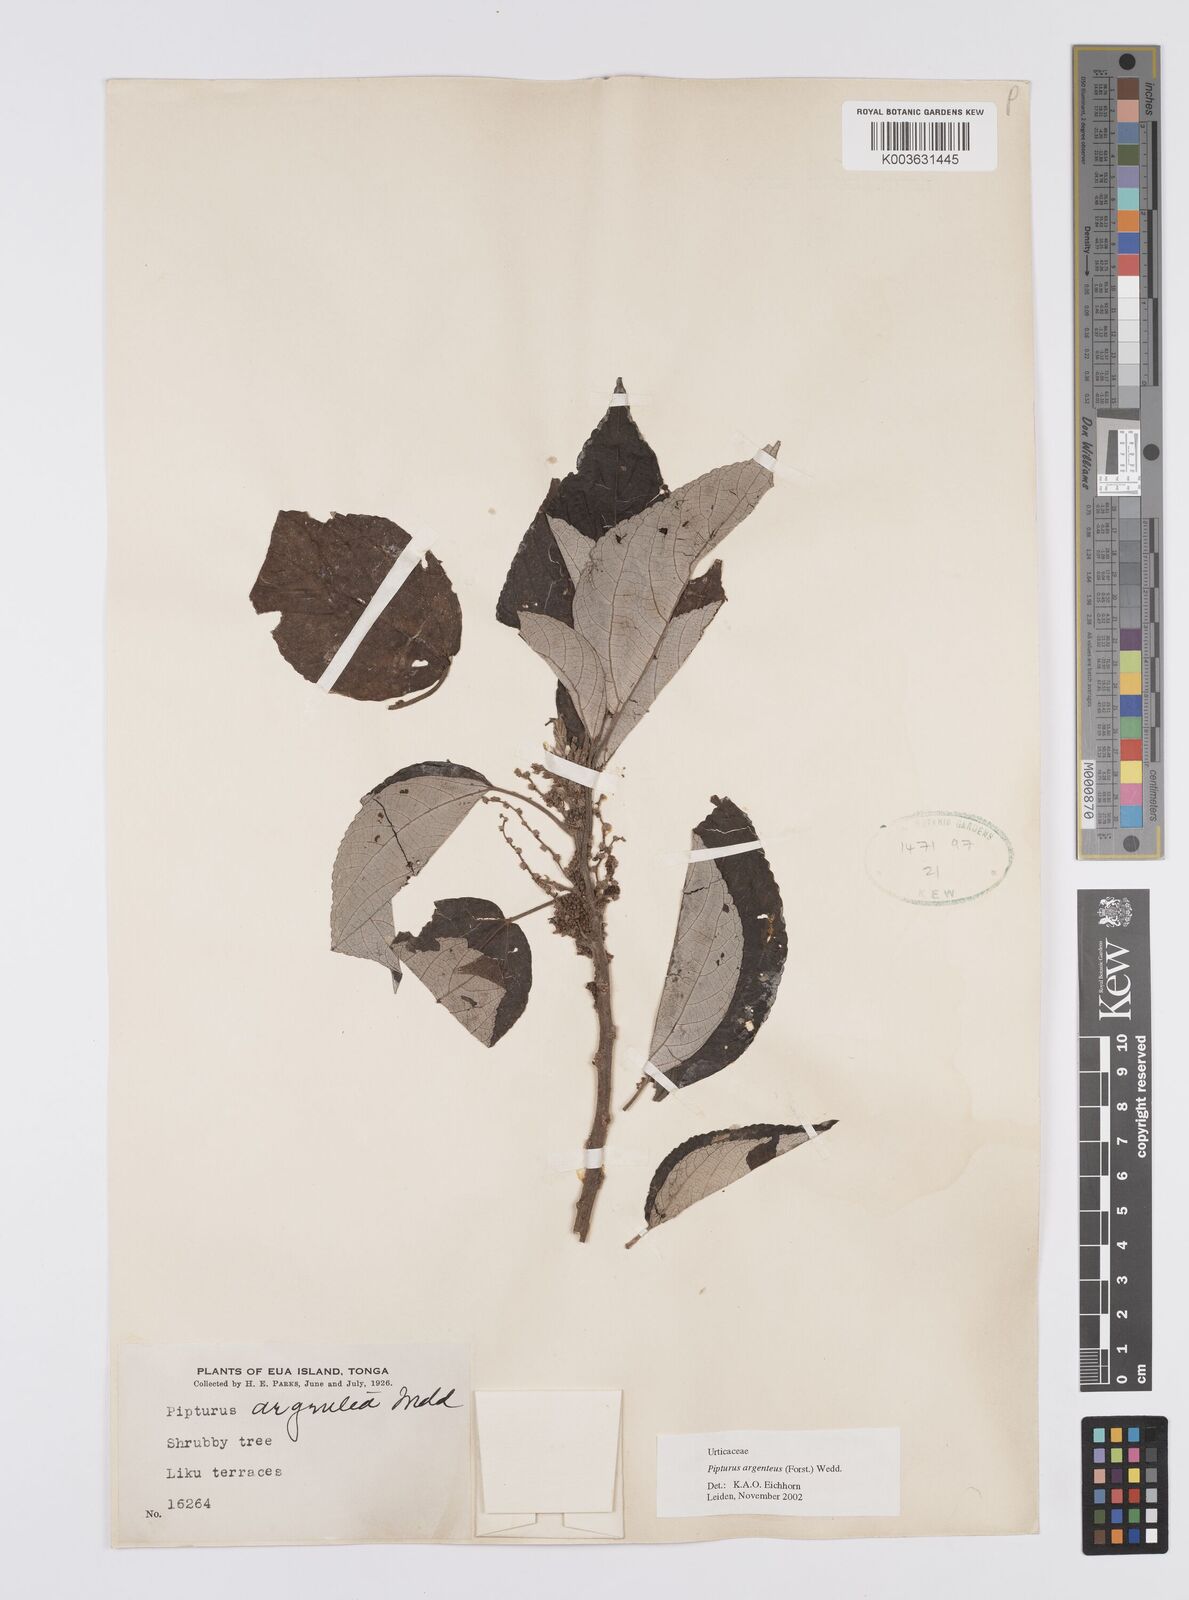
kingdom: Plantae
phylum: Tracheophyta
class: Magnoliopsida
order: Rosales
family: Urticaceae
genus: Pipturus
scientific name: Pipturus argenteus
